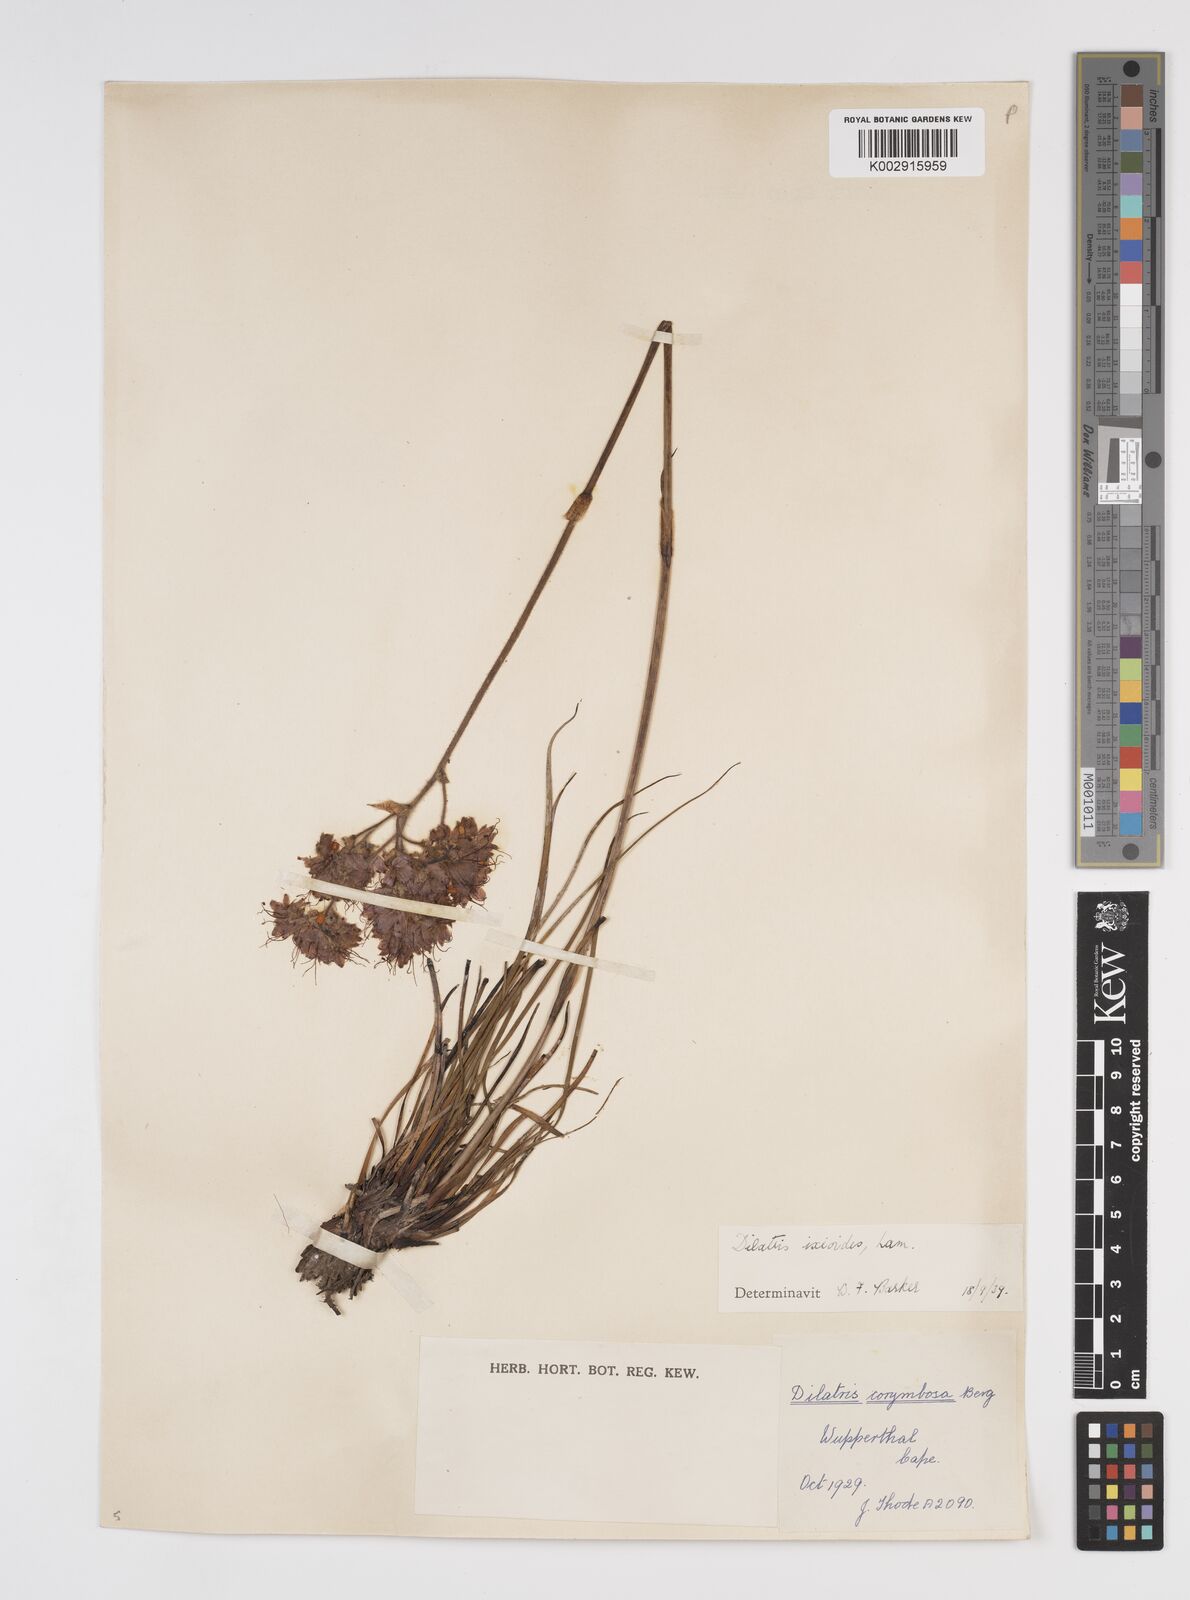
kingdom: Plantae
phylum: Tracheophyta
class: Liliopsida
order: Commelinales
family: Haemodoraceae
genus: Dilatris
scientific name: Dilatris ixioides
